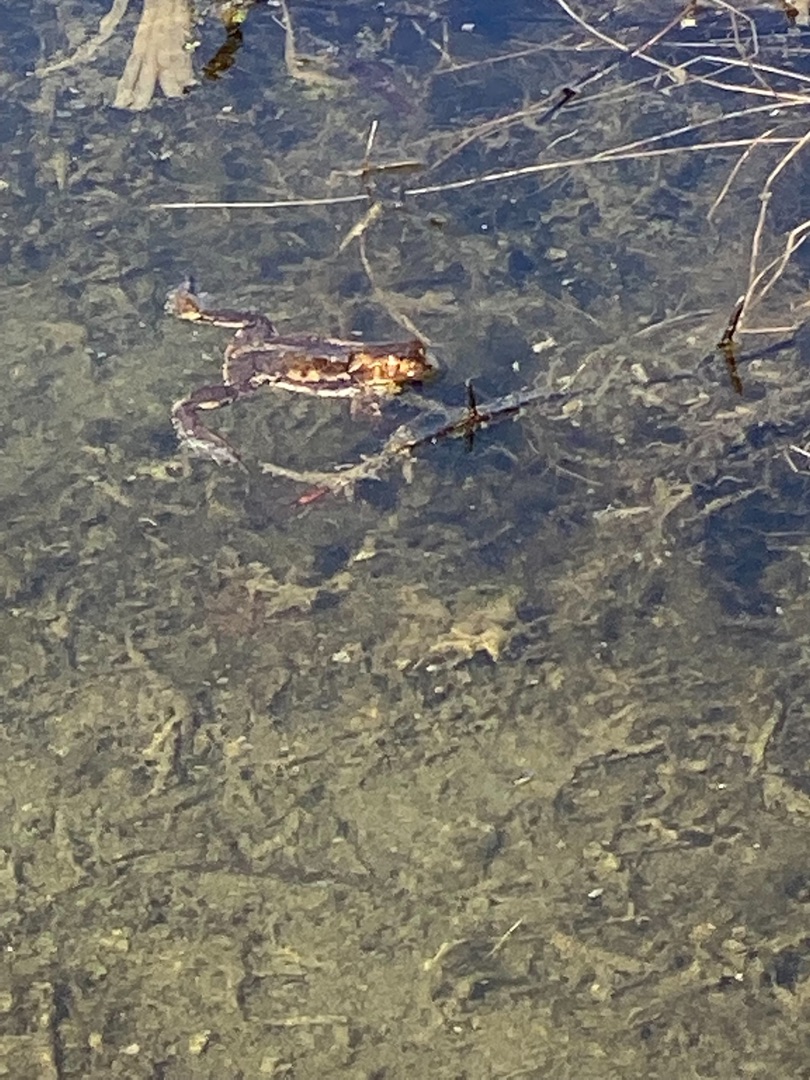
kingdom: Animalia
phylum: Chordata
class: Amphibia
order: Anura
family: Bufonidae
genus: Bufo
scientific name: Bufo bufo
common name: Skrubtudse
